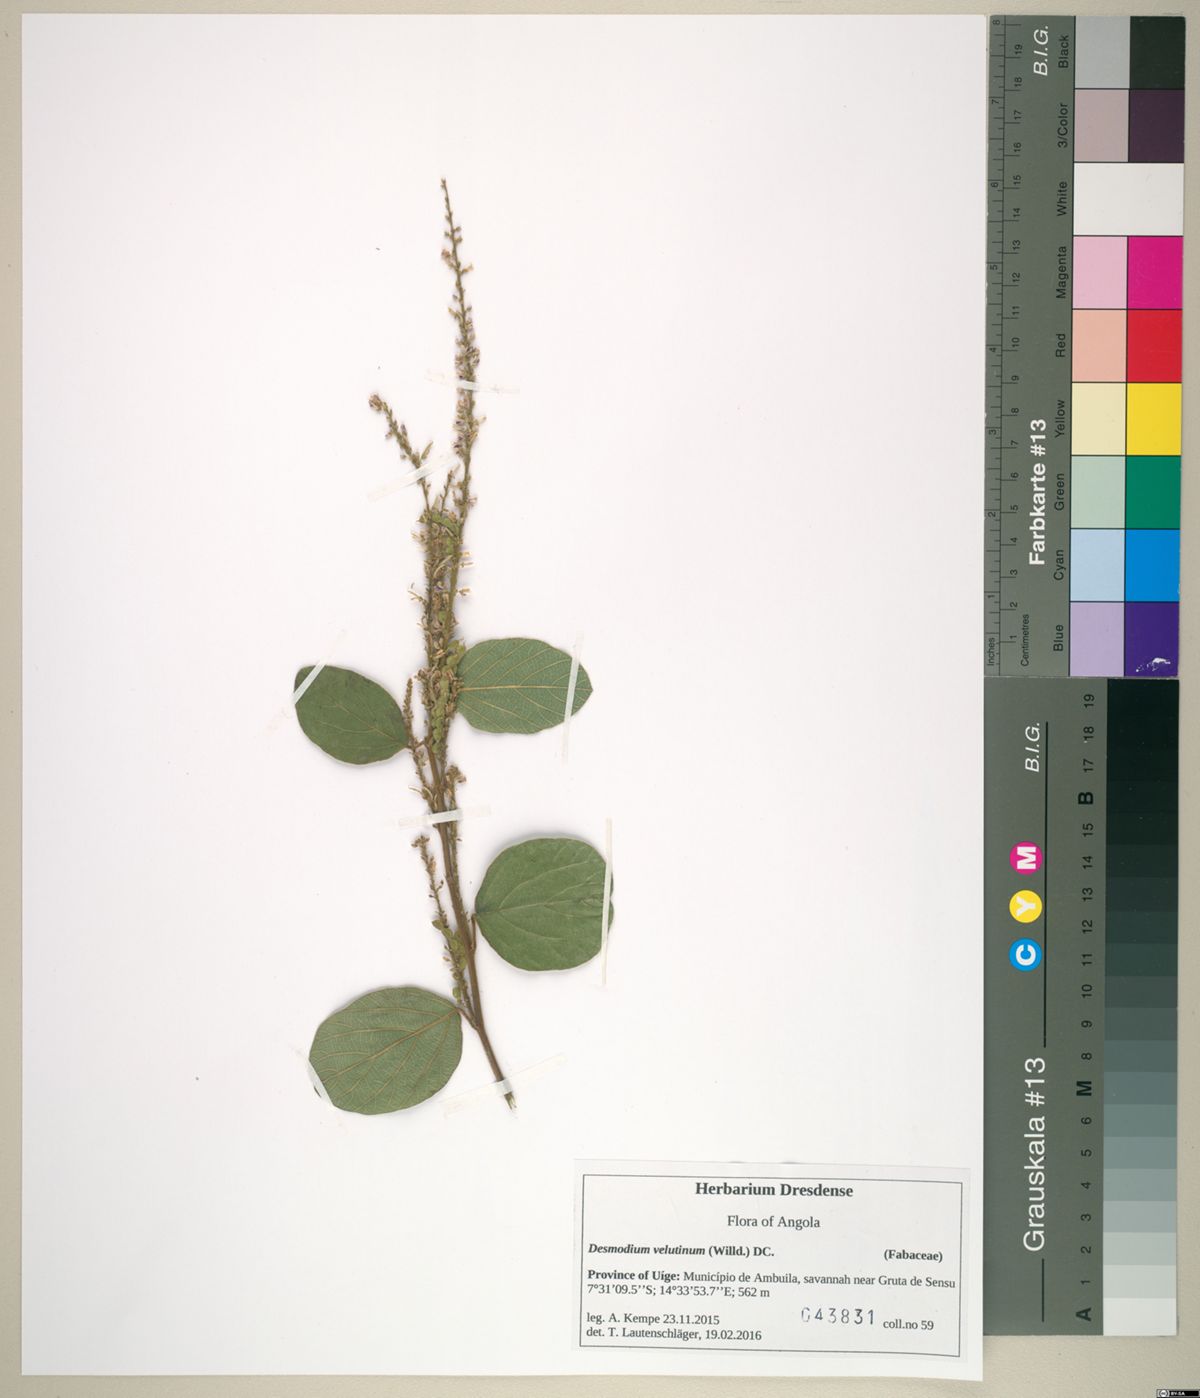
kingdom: Plantae
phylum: Tracheophyta
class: Magnoliopsida
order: Fabales
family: Fabaceae
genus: Polhillides
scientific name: Polhillides velutina
